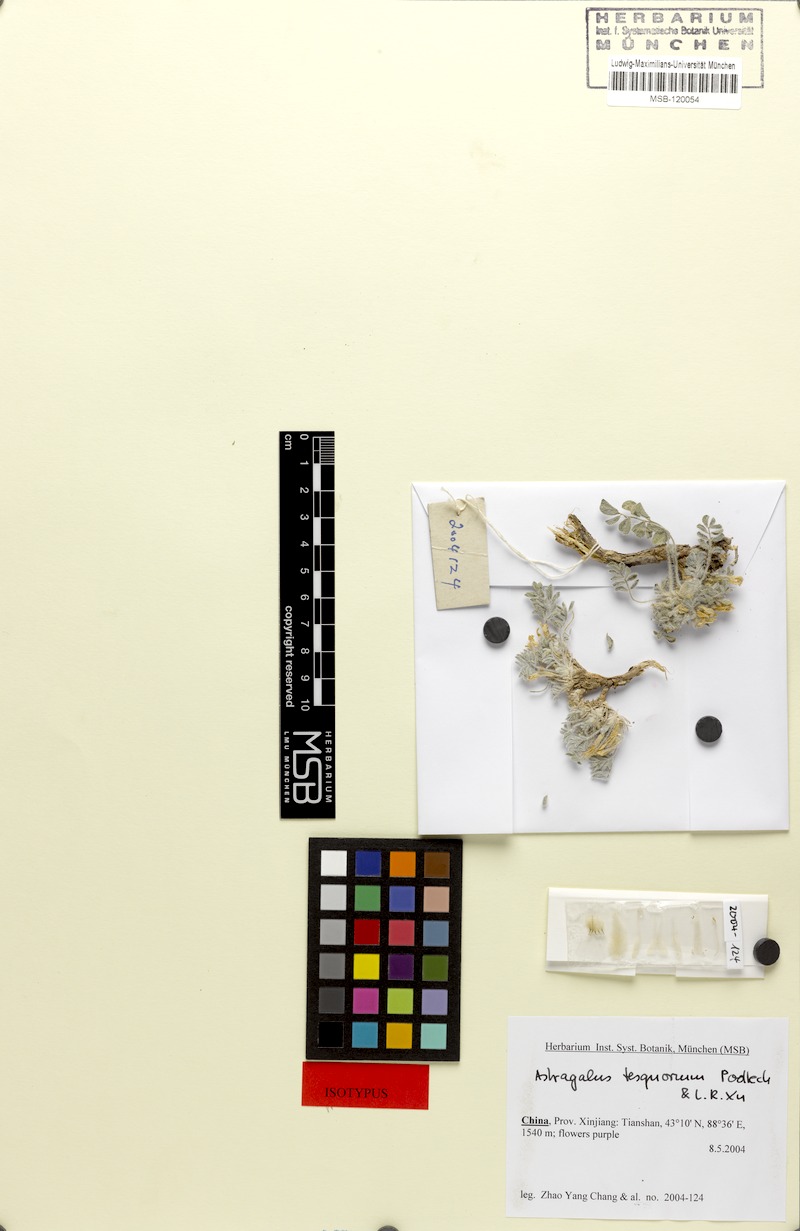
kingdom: Plantae
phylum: Tracheophyta
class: Magnoliopsida
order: Fabales
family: Fabaceae
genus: Astragalus
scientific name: Astragalus tesquorum
